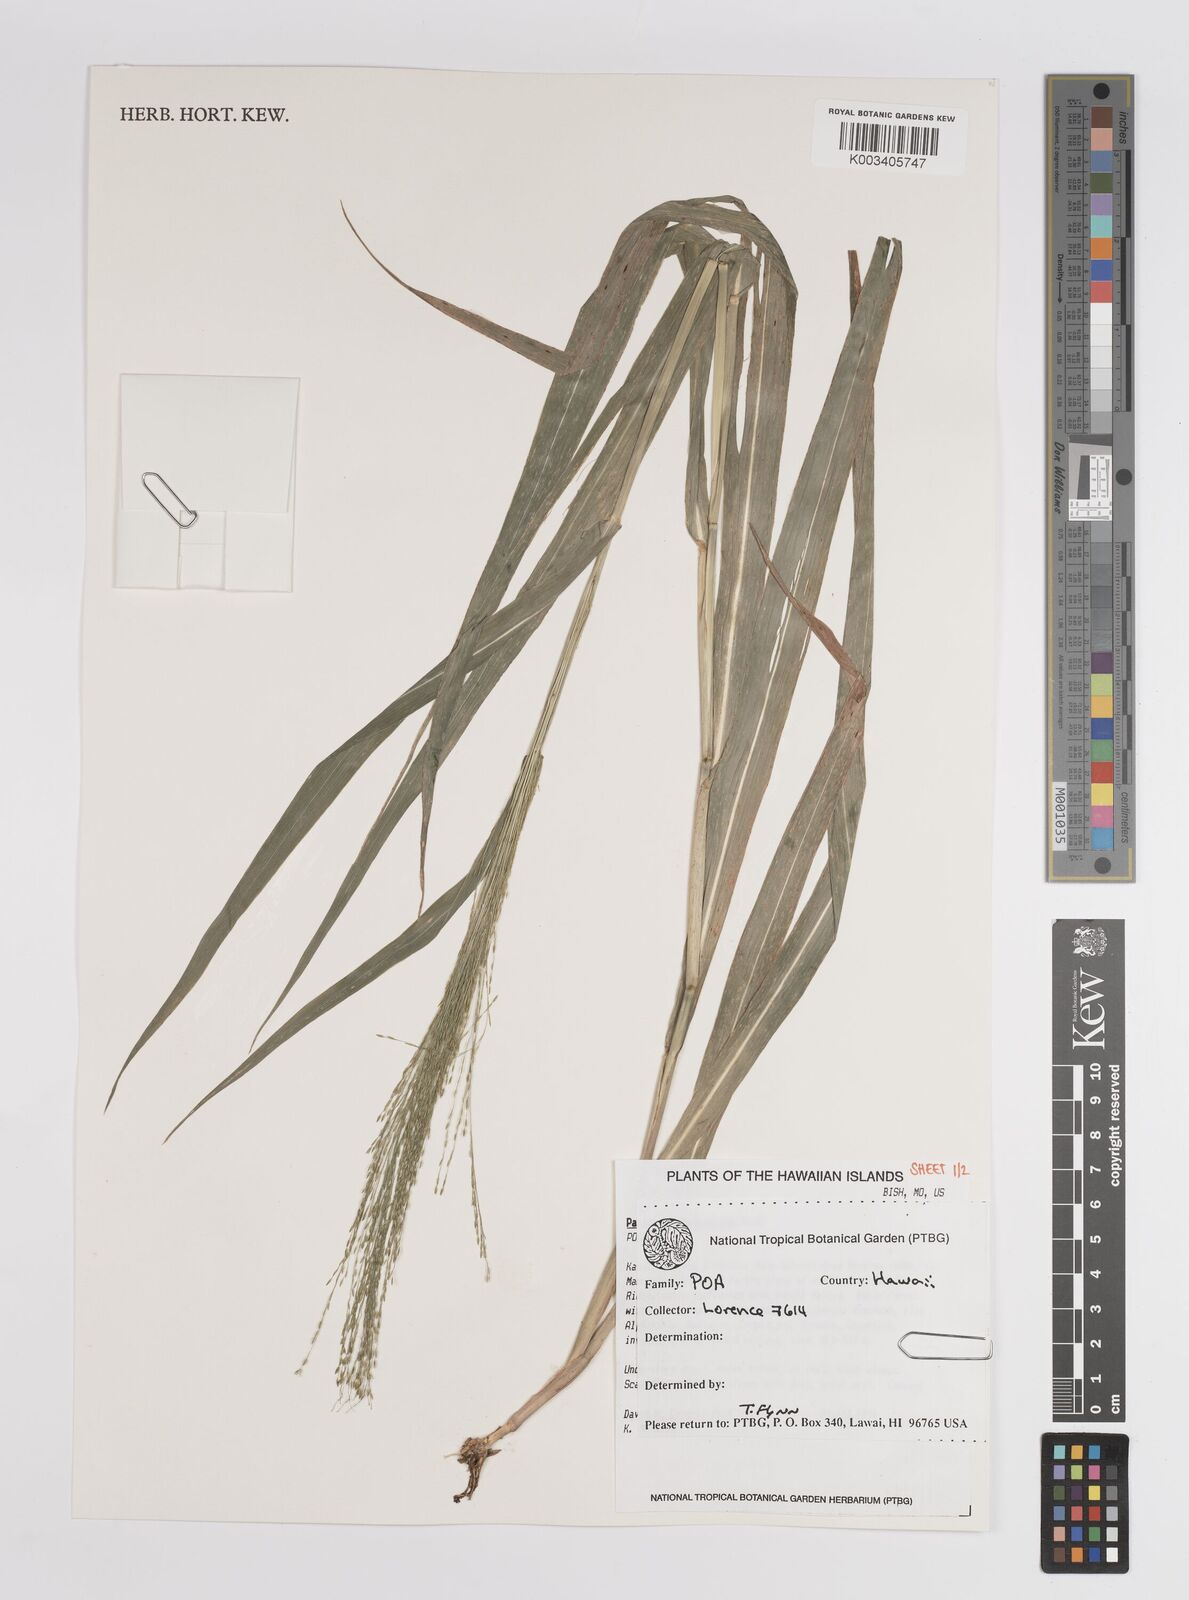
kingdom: Plantae
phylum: Tracheophyta
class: Liliopsida
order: Poales
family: Poaceae
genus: Panicum
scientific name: Panicum nephelophilum
